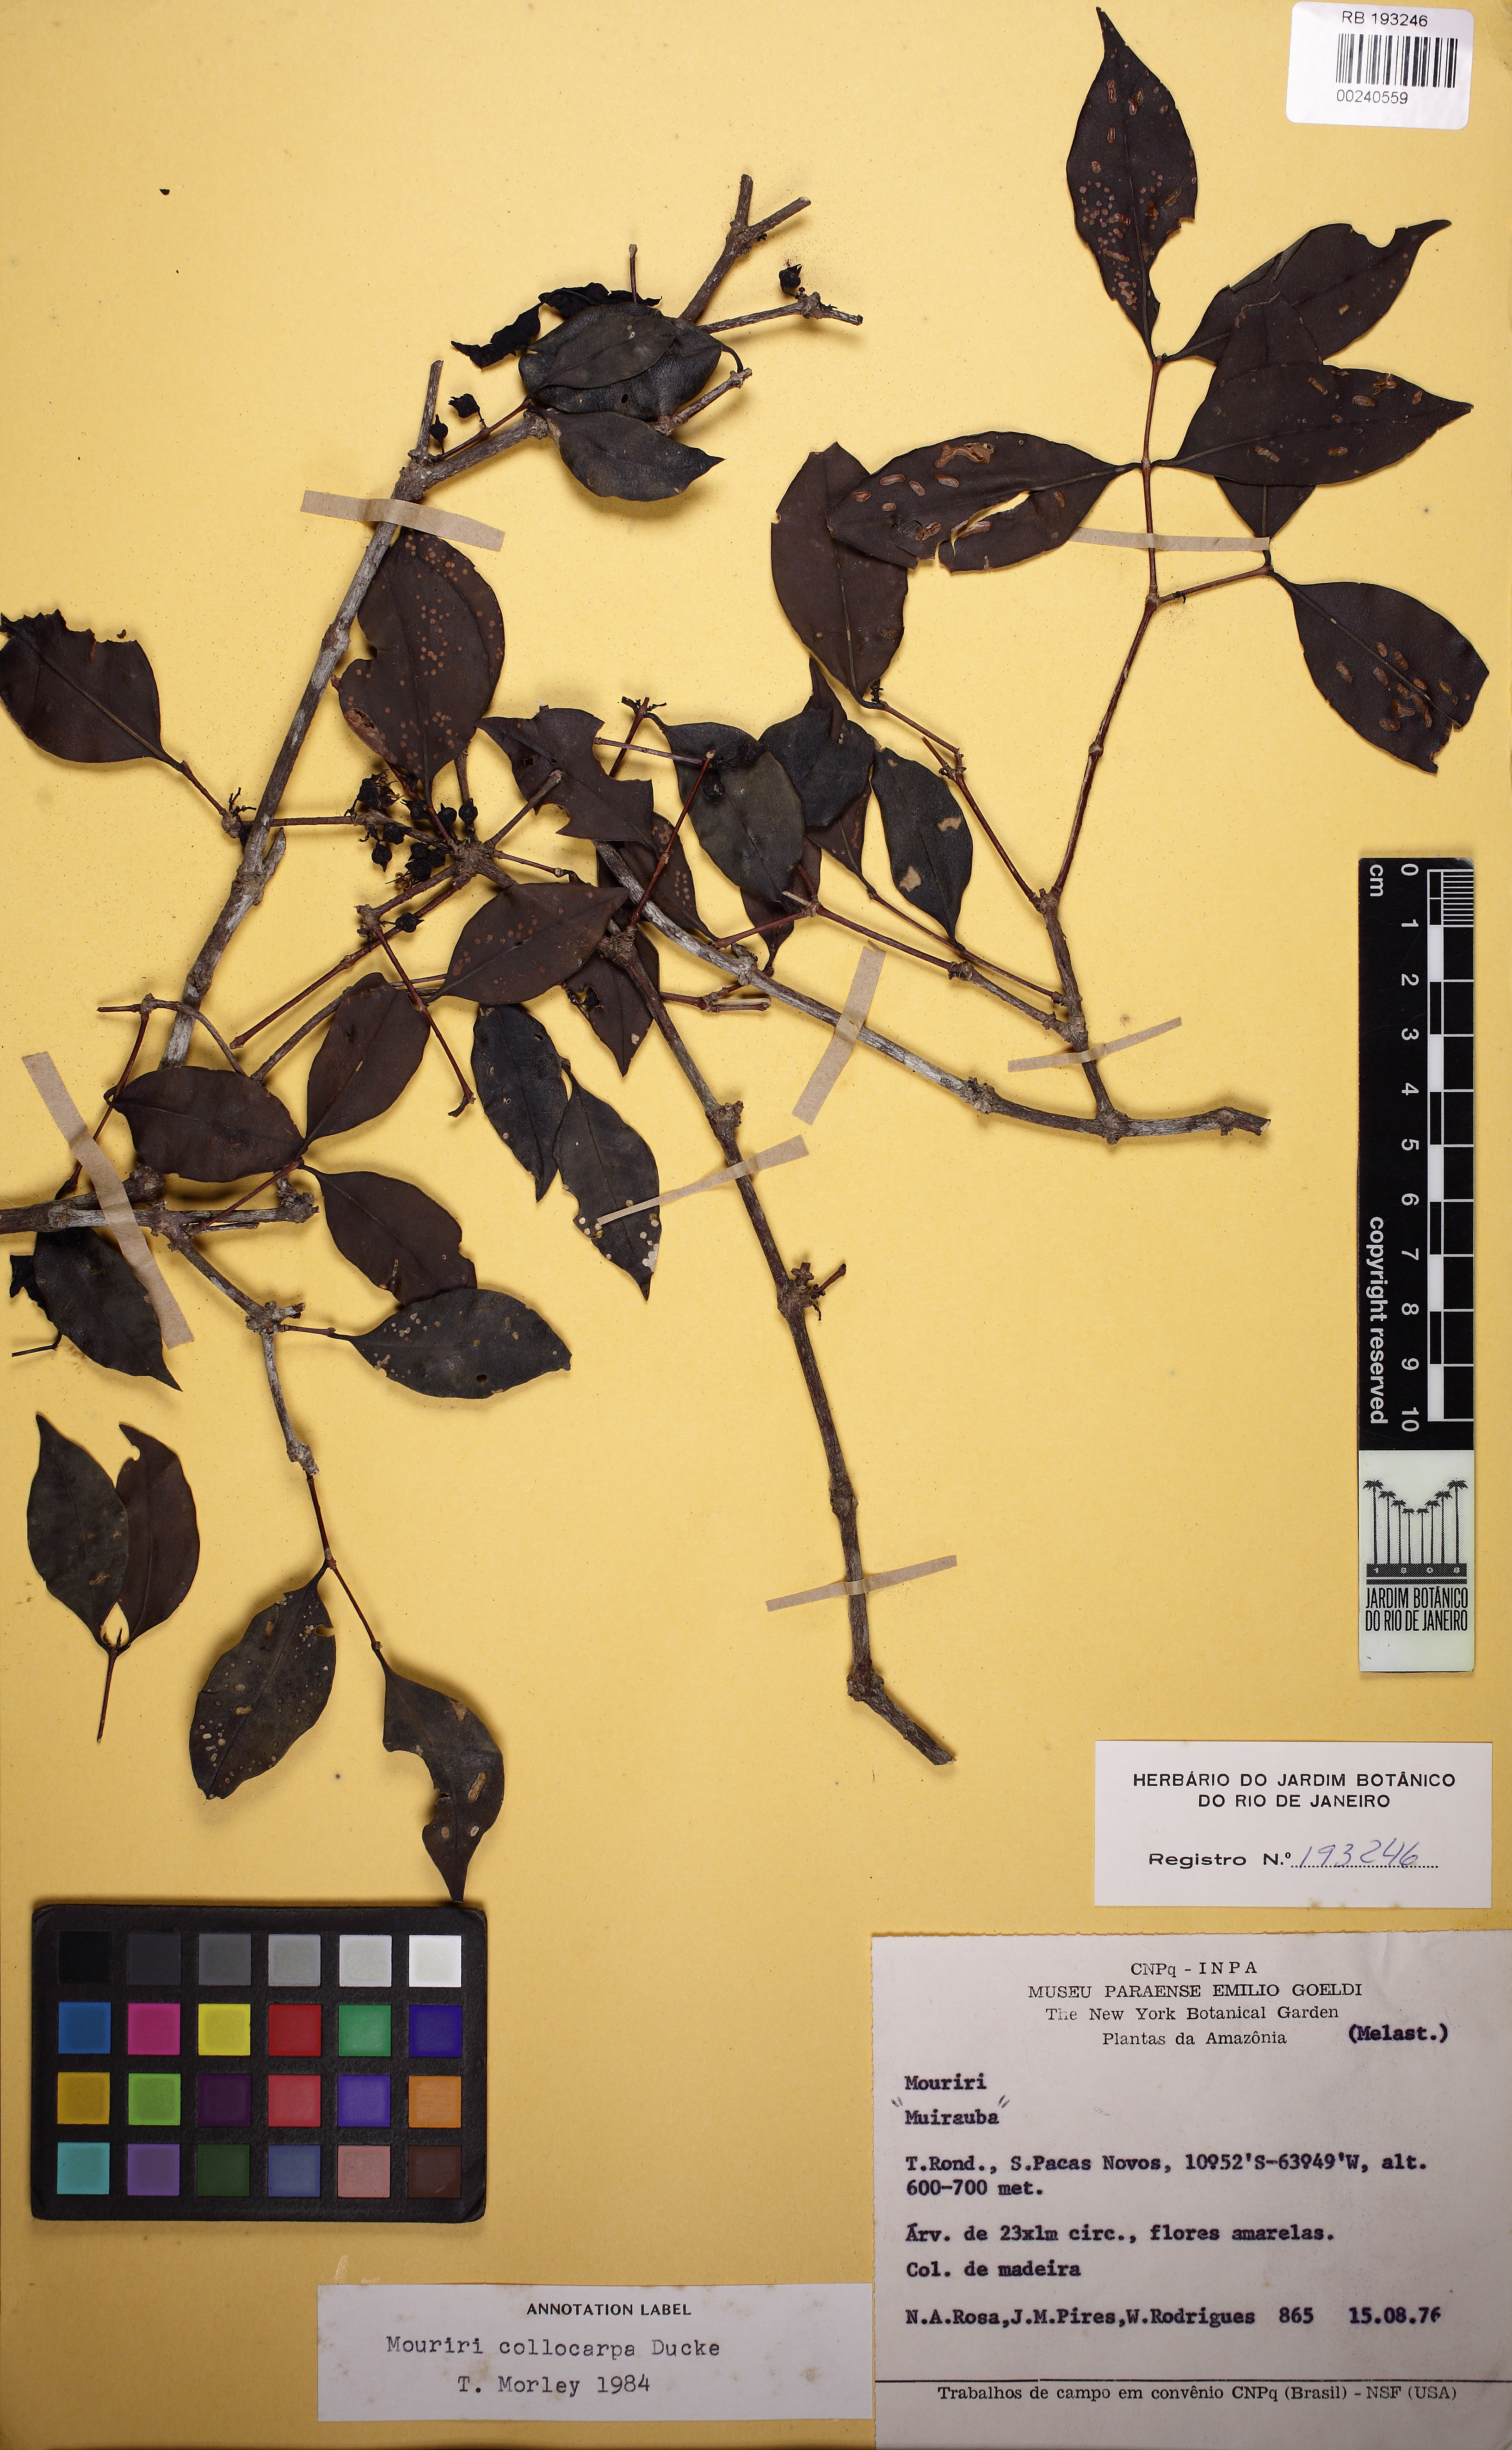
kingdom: Plantae
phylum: Tracheophyta
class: Magnoliopsida
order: Myrtales
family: Melastomataceae
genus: Mouriri
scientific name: Mouriri collocarpa
